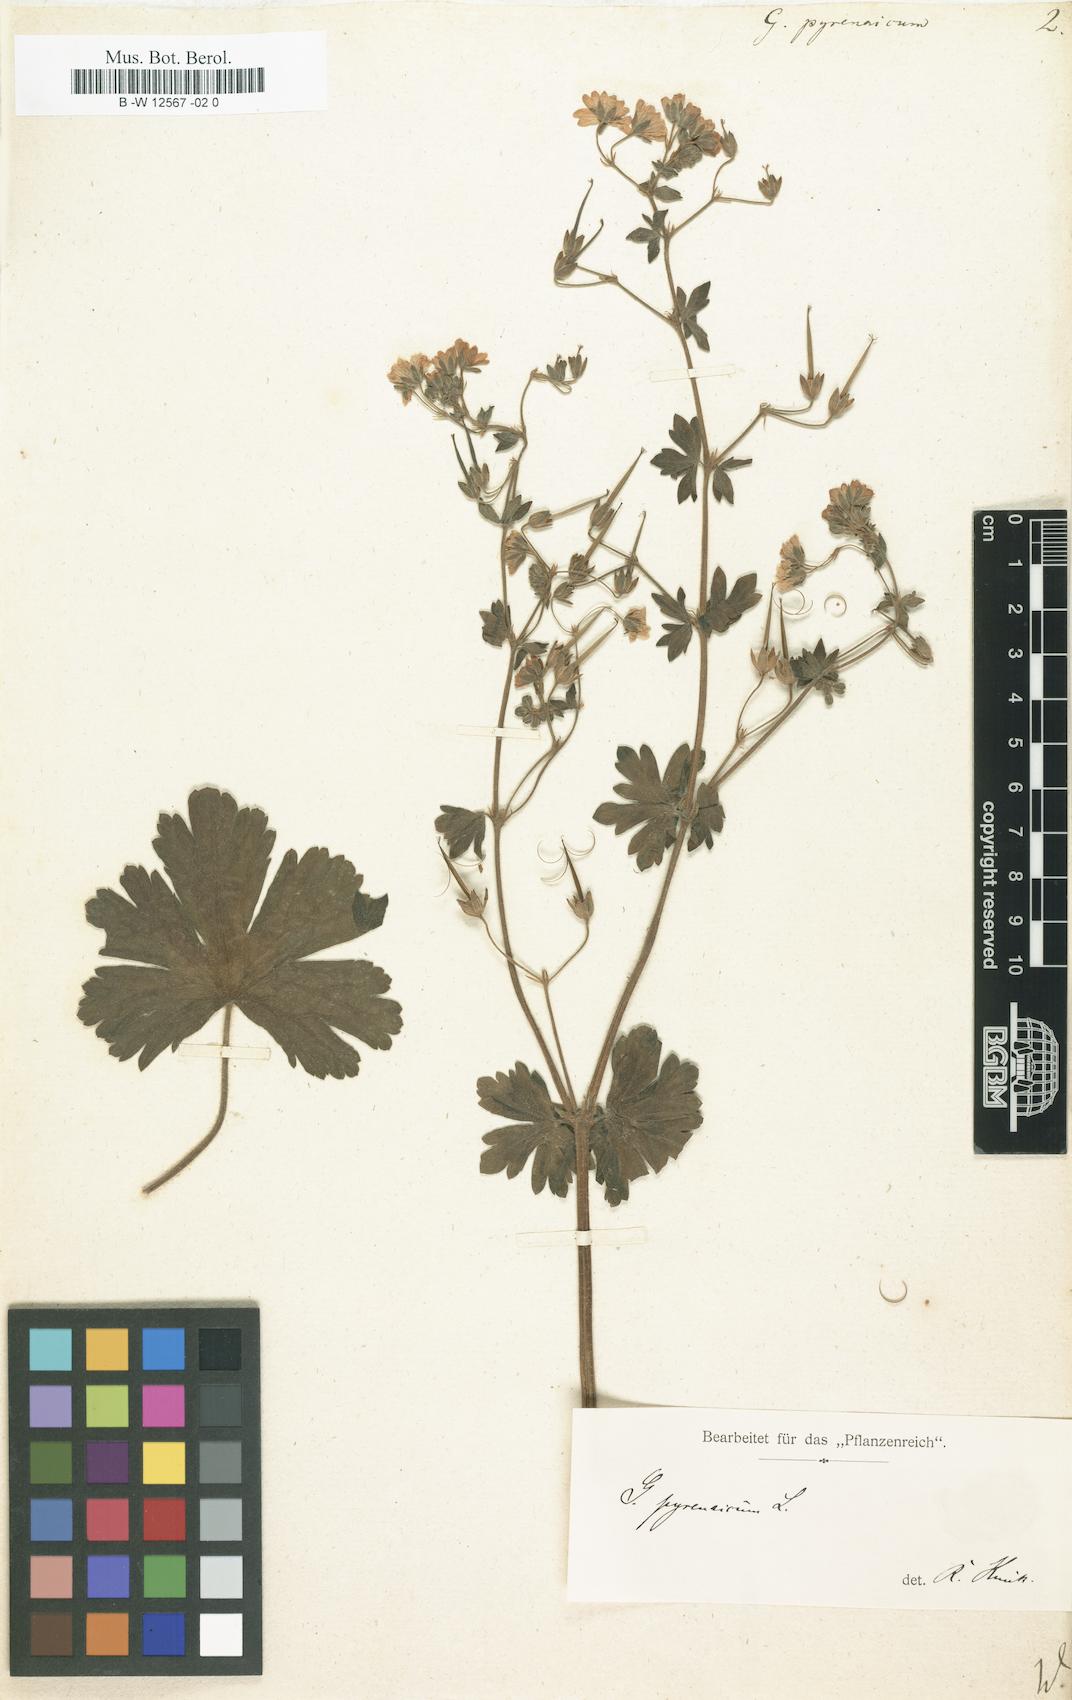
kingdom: Plantae
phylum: Tracheophyta
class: Magnoliopsida
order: Geraniales
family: Geraniaceae
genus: Geranium
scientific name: Geranium pyrenaicum
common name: Hedgerow crane's-bill
